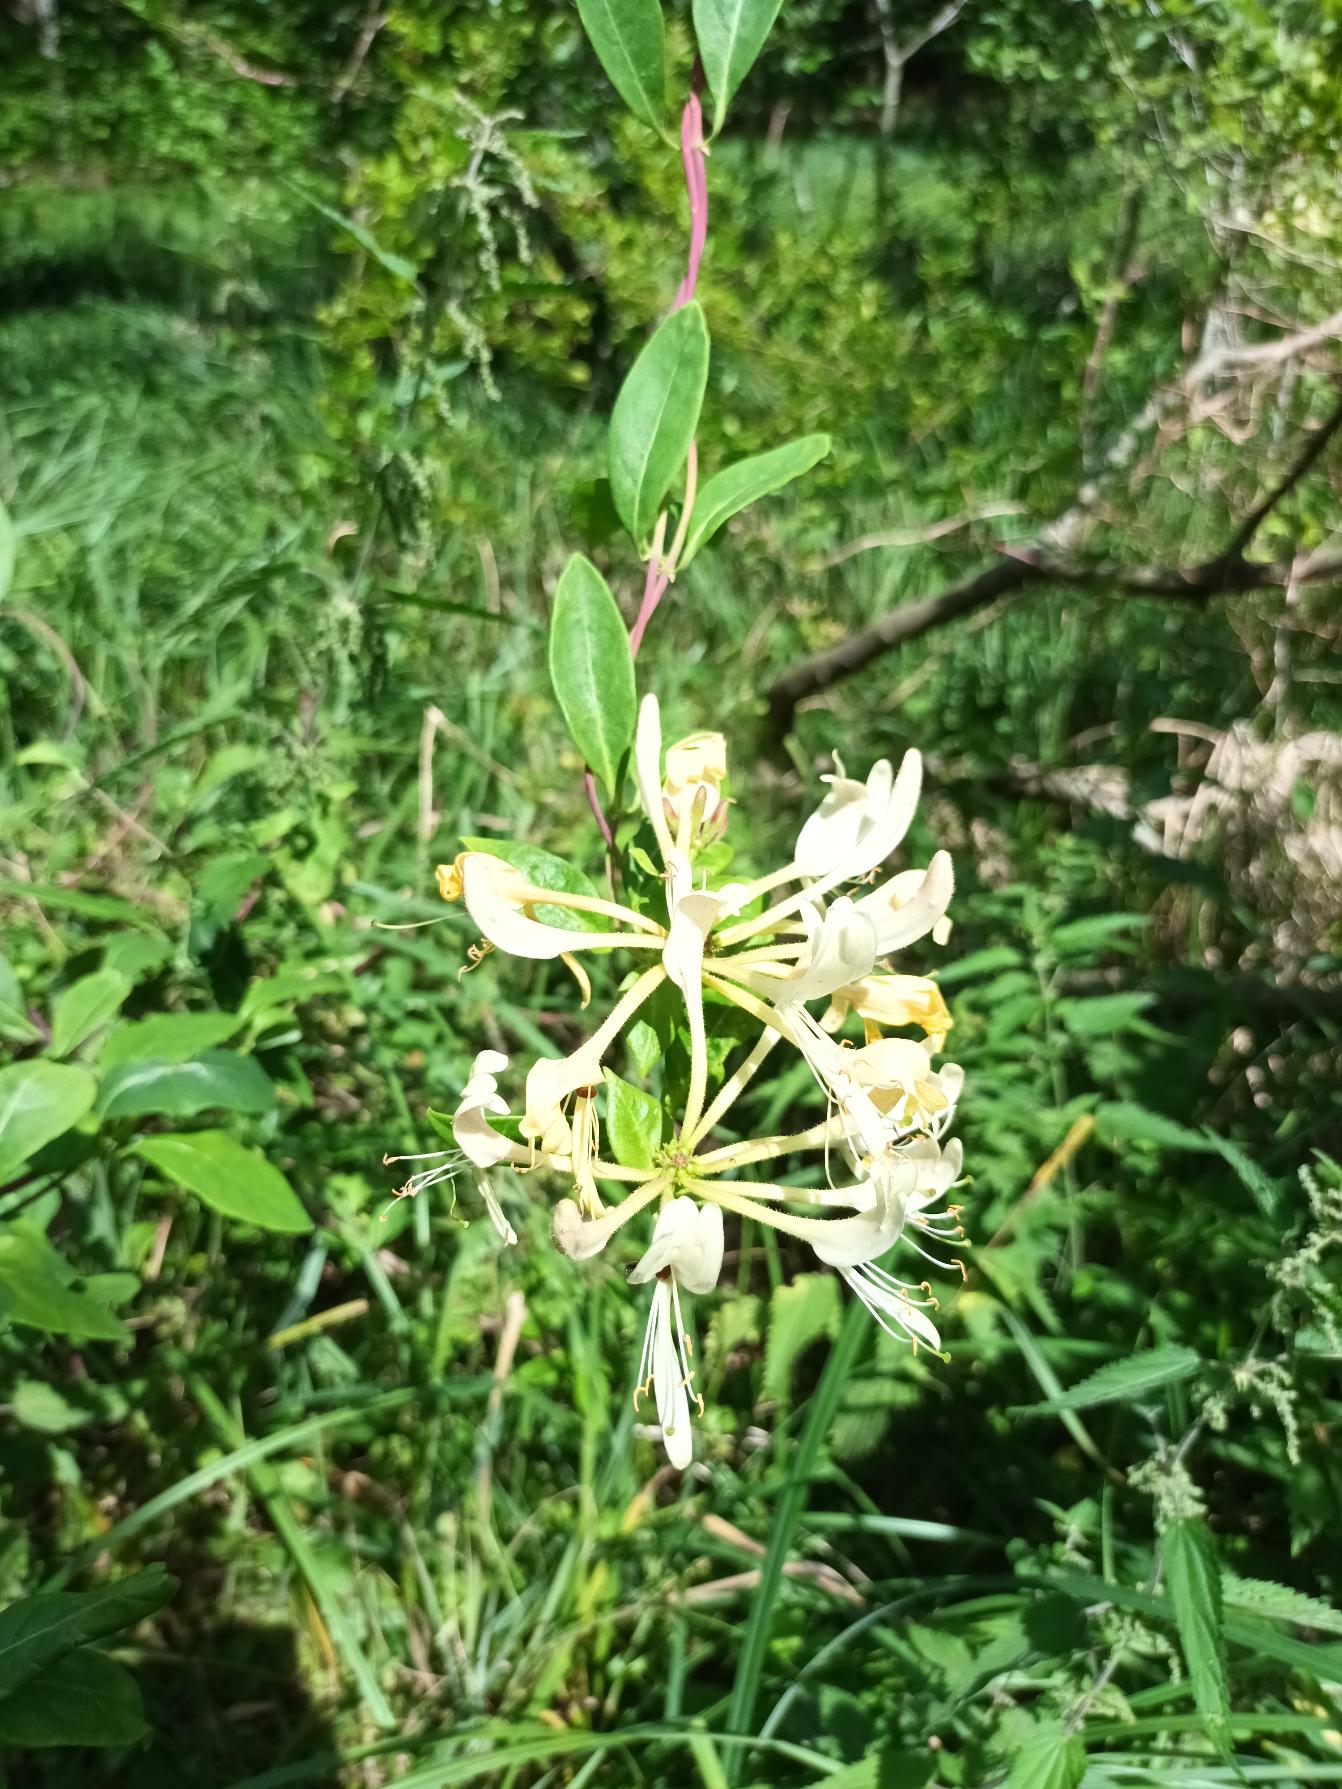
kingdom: Plantae
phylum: Tracheophyta
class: Magnoliopsida
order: Dipsacales
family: Caprifoliaceae
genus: Lonicera
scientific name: Lonicera periclymenum
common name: Almindelig gedeblad
